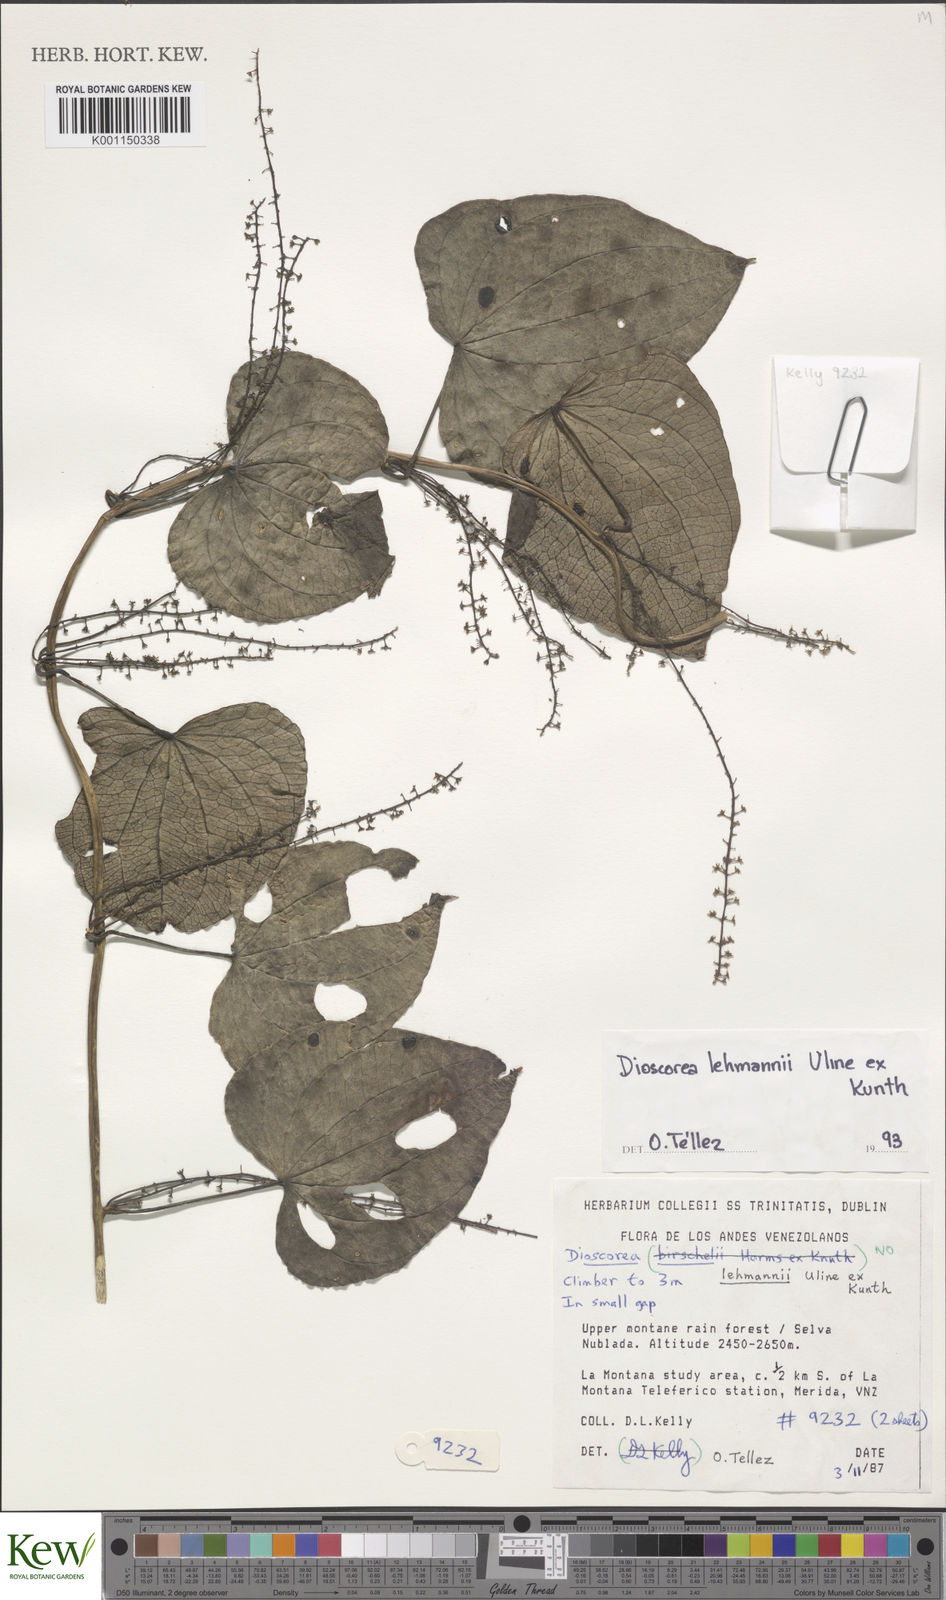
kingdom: Plantae
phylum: Tracheophyta
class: Liliopsida
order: Dioscoreales
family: Dioscoreaceae
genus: Dioscorea
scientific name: Dioscorea lehmannii
